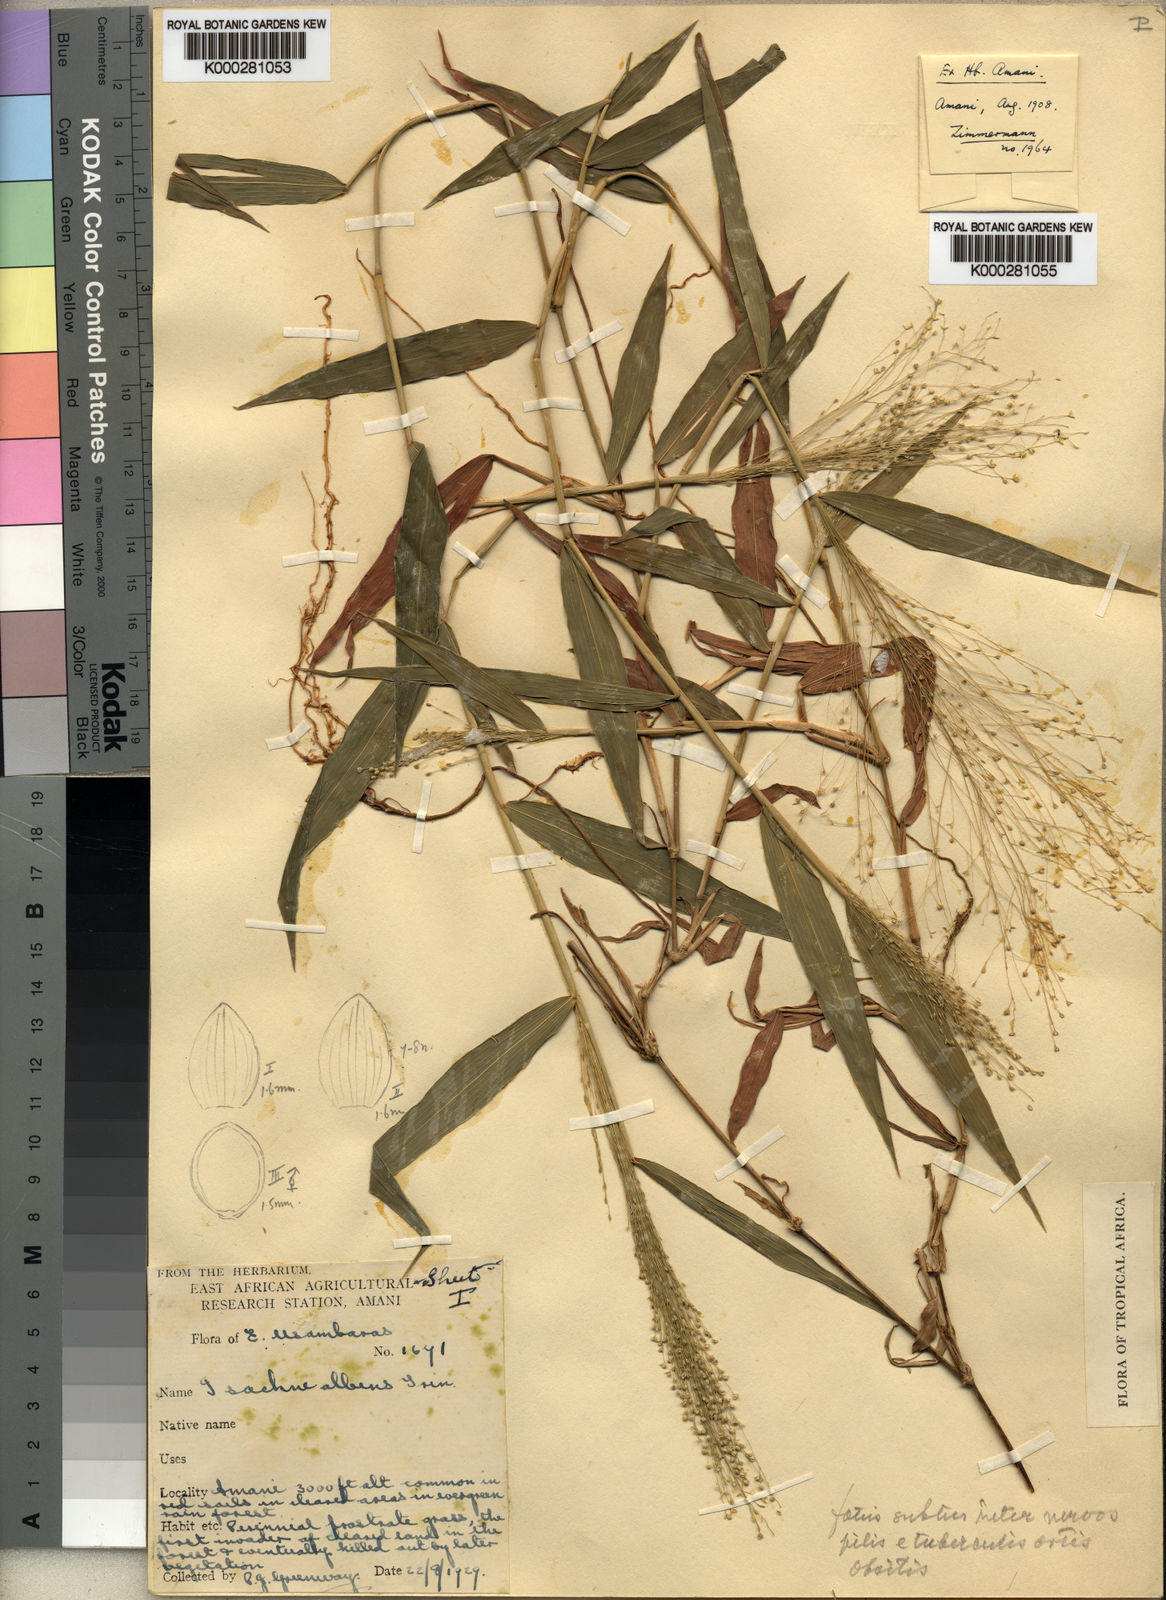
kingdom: Plantae
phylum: Tracheophyta
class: Liliopsida
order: Poales
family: Poaceae
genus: Isachne
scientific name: Isachne mauritiana
